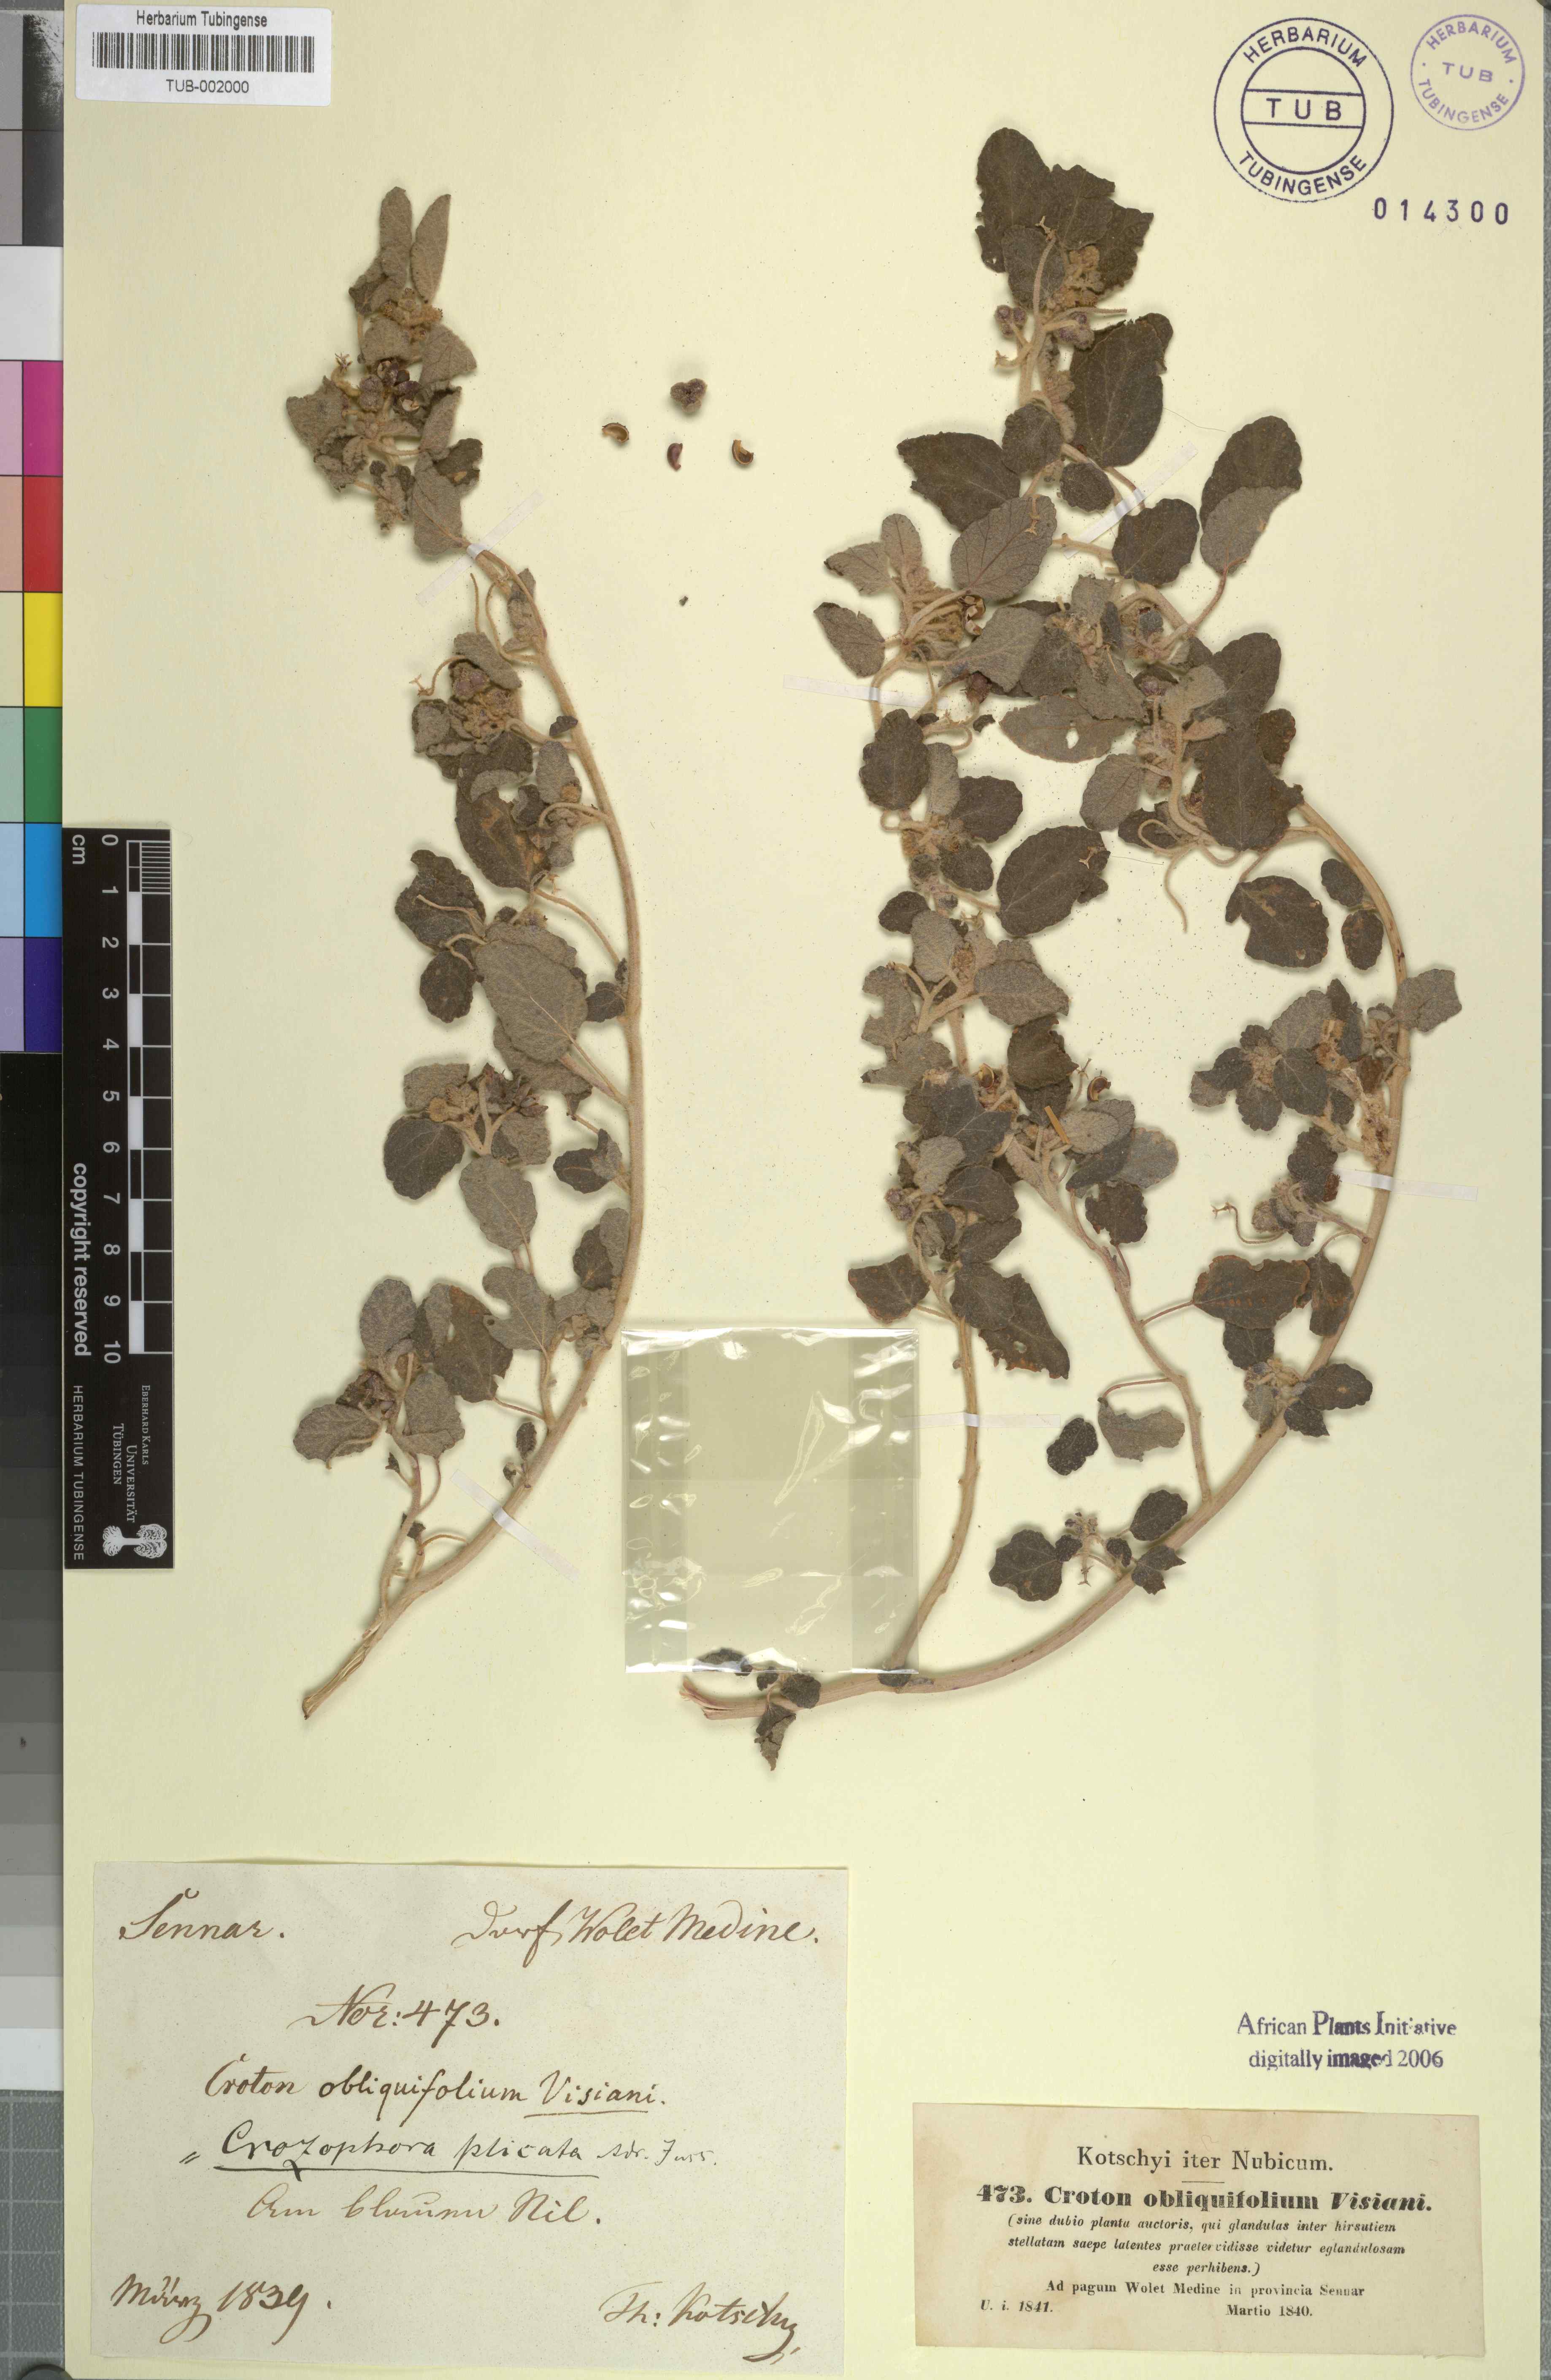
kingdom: Plantae
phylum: Tracheophyta
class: Magnoliopsida
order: Malpighiales
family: Euphorbiaceae
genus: Chrozophora
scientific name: Chrozophora plicata
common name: Giradol
